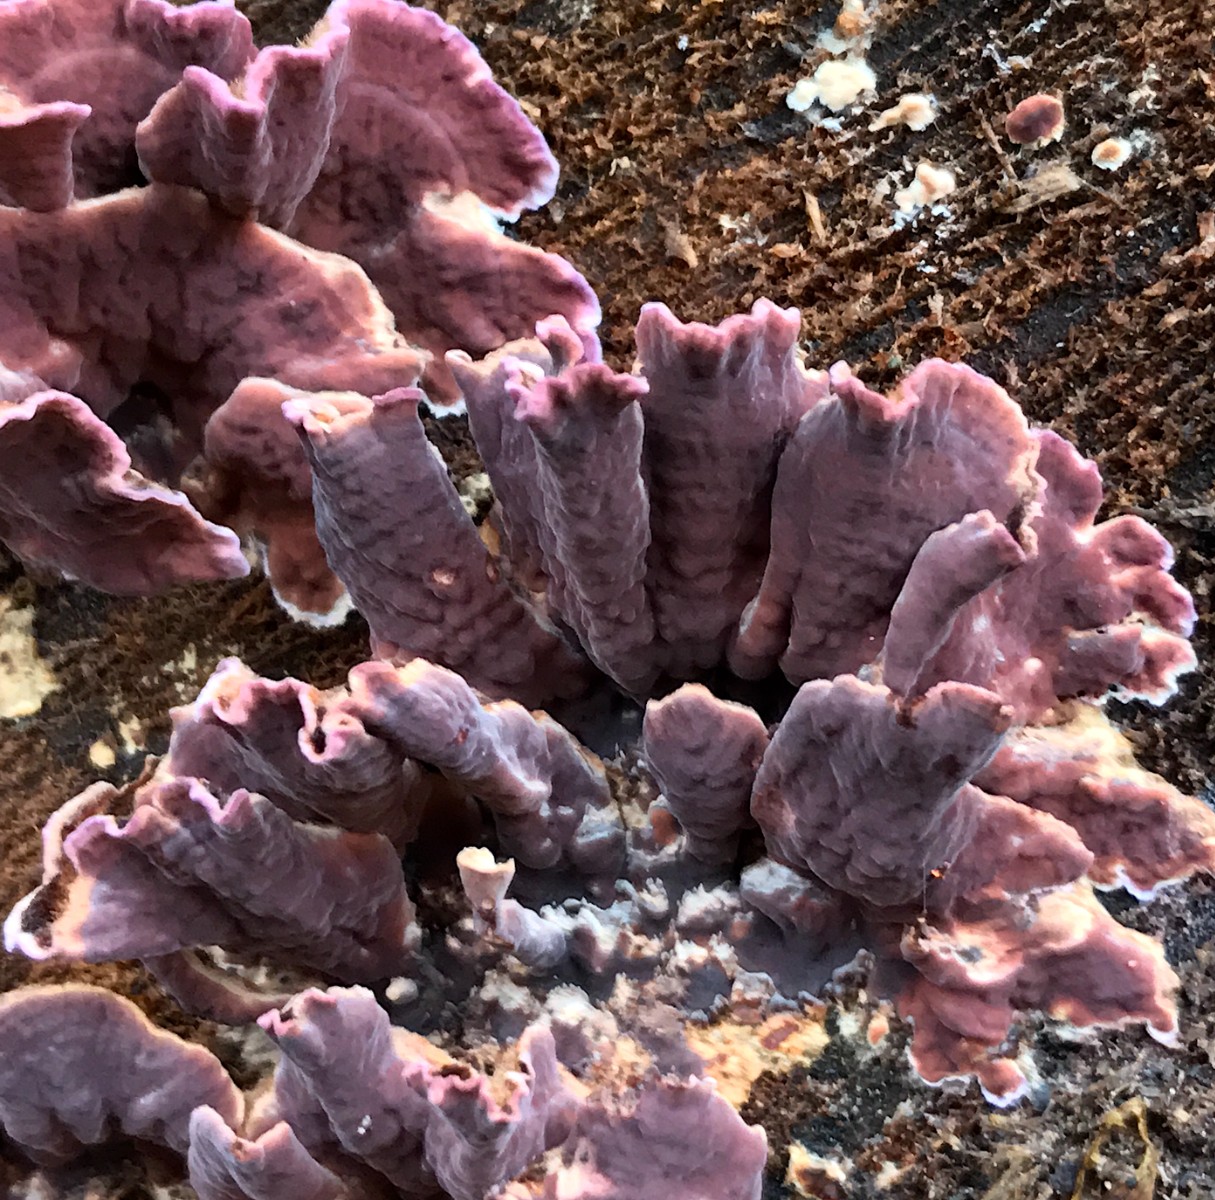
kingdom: Fungi
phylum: Basidiomycota
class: Agaricomycetes
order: Agaricales
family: Cyphellaceae
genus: Chondrostereum
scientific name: Chondrostereum purpureum
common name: purpurlædersvamp
